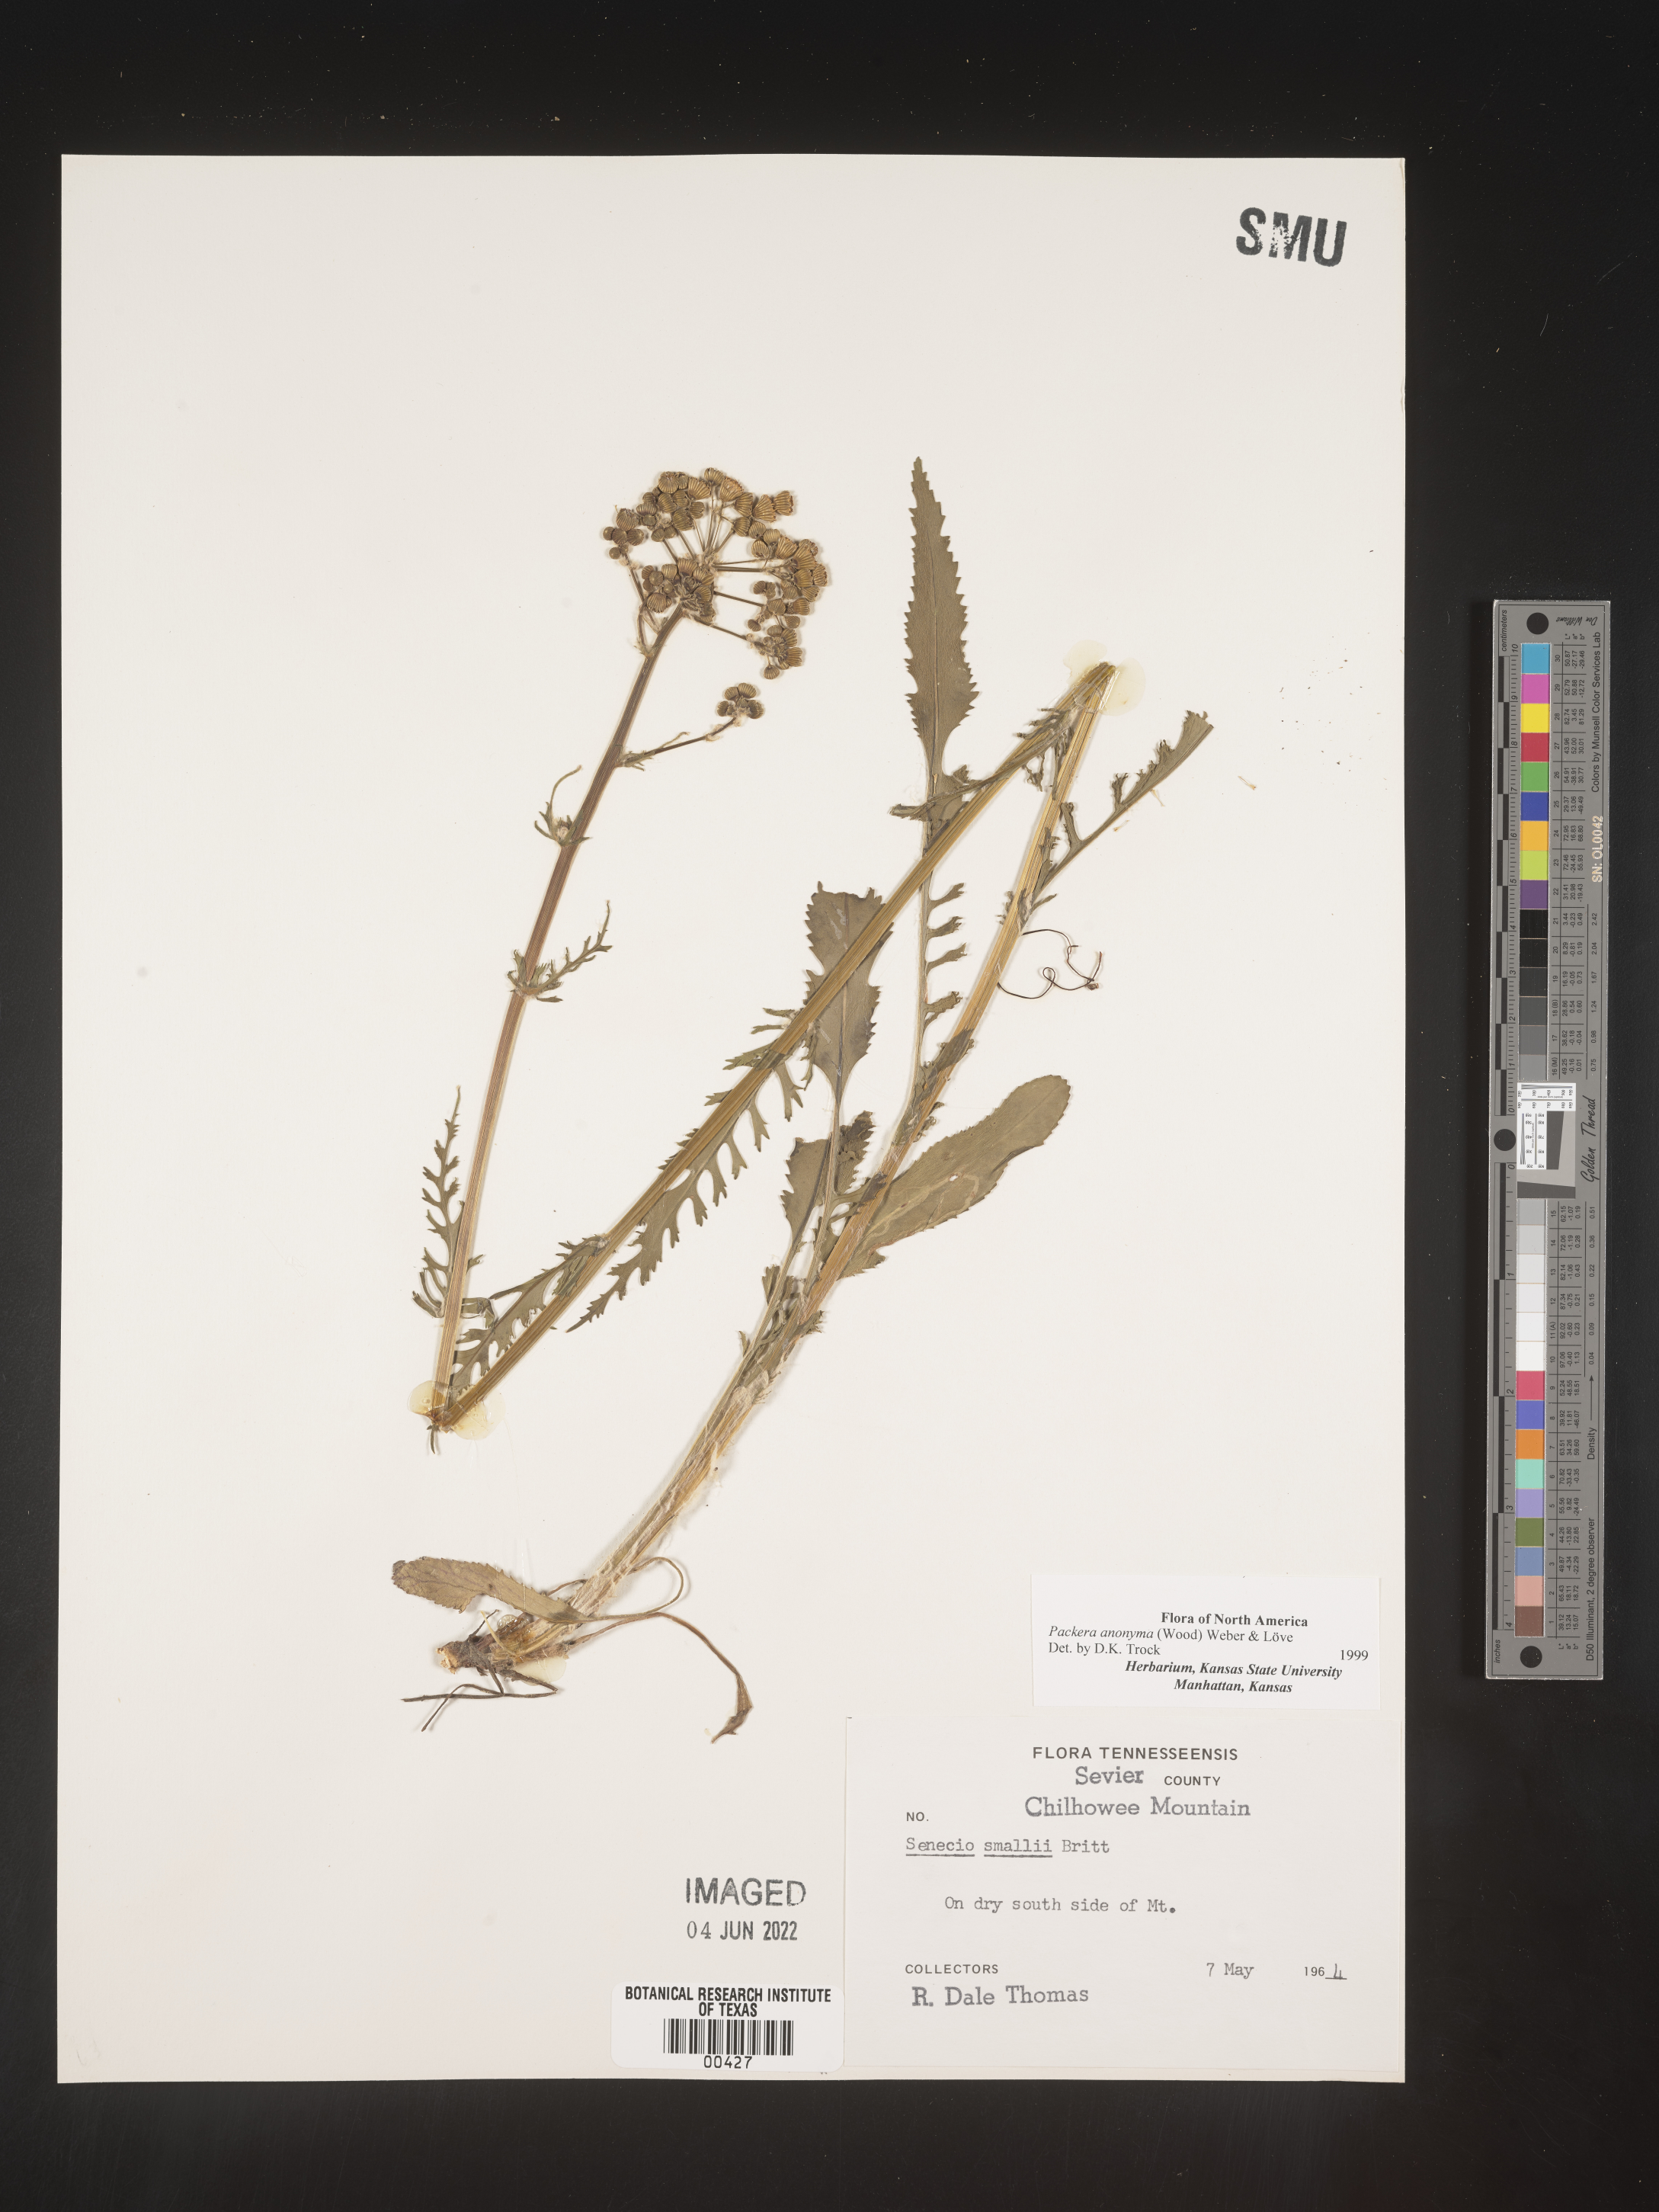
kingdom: Plantae
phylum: Tracheophyta
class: Magnoliopsida
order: Asterales
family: Asteraceae
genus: Packera
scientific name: Packera anonyma
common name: Small ragwort
